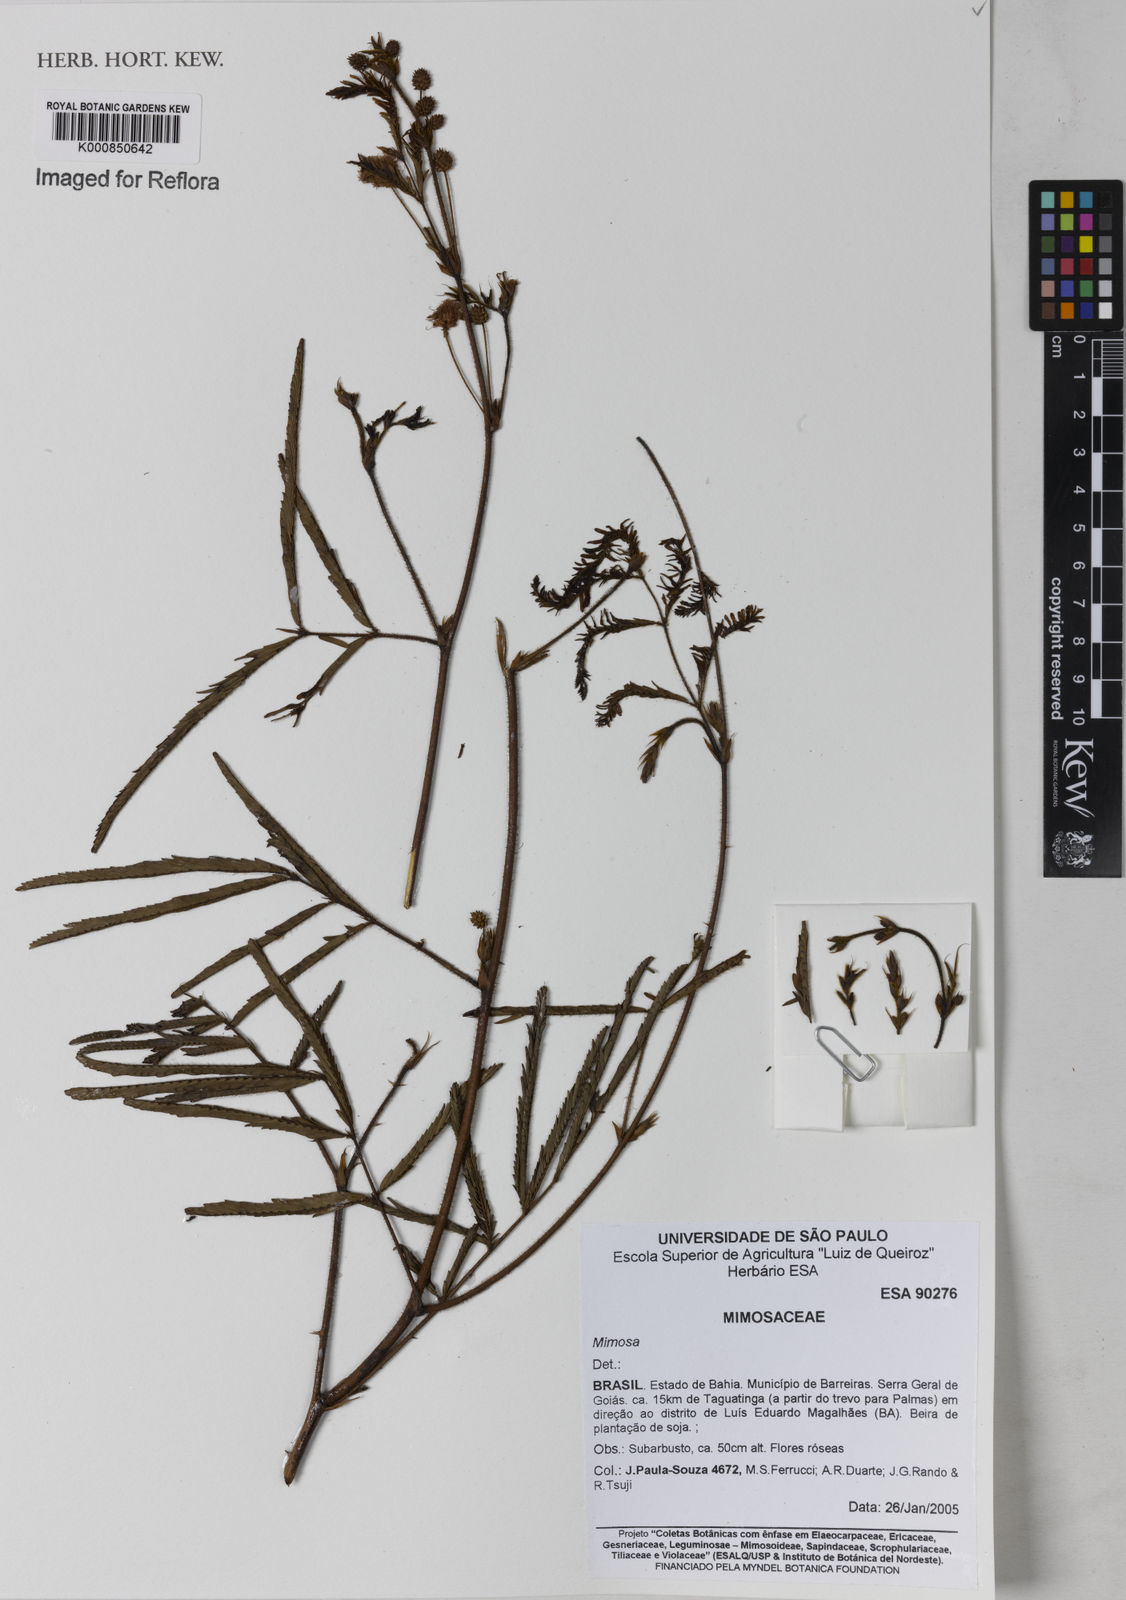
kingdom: Plantae
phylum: Tracheophyta
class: Magnoliopsida
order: Fabales
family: Fabaceae
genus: Mimosa
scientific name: Mimosa
